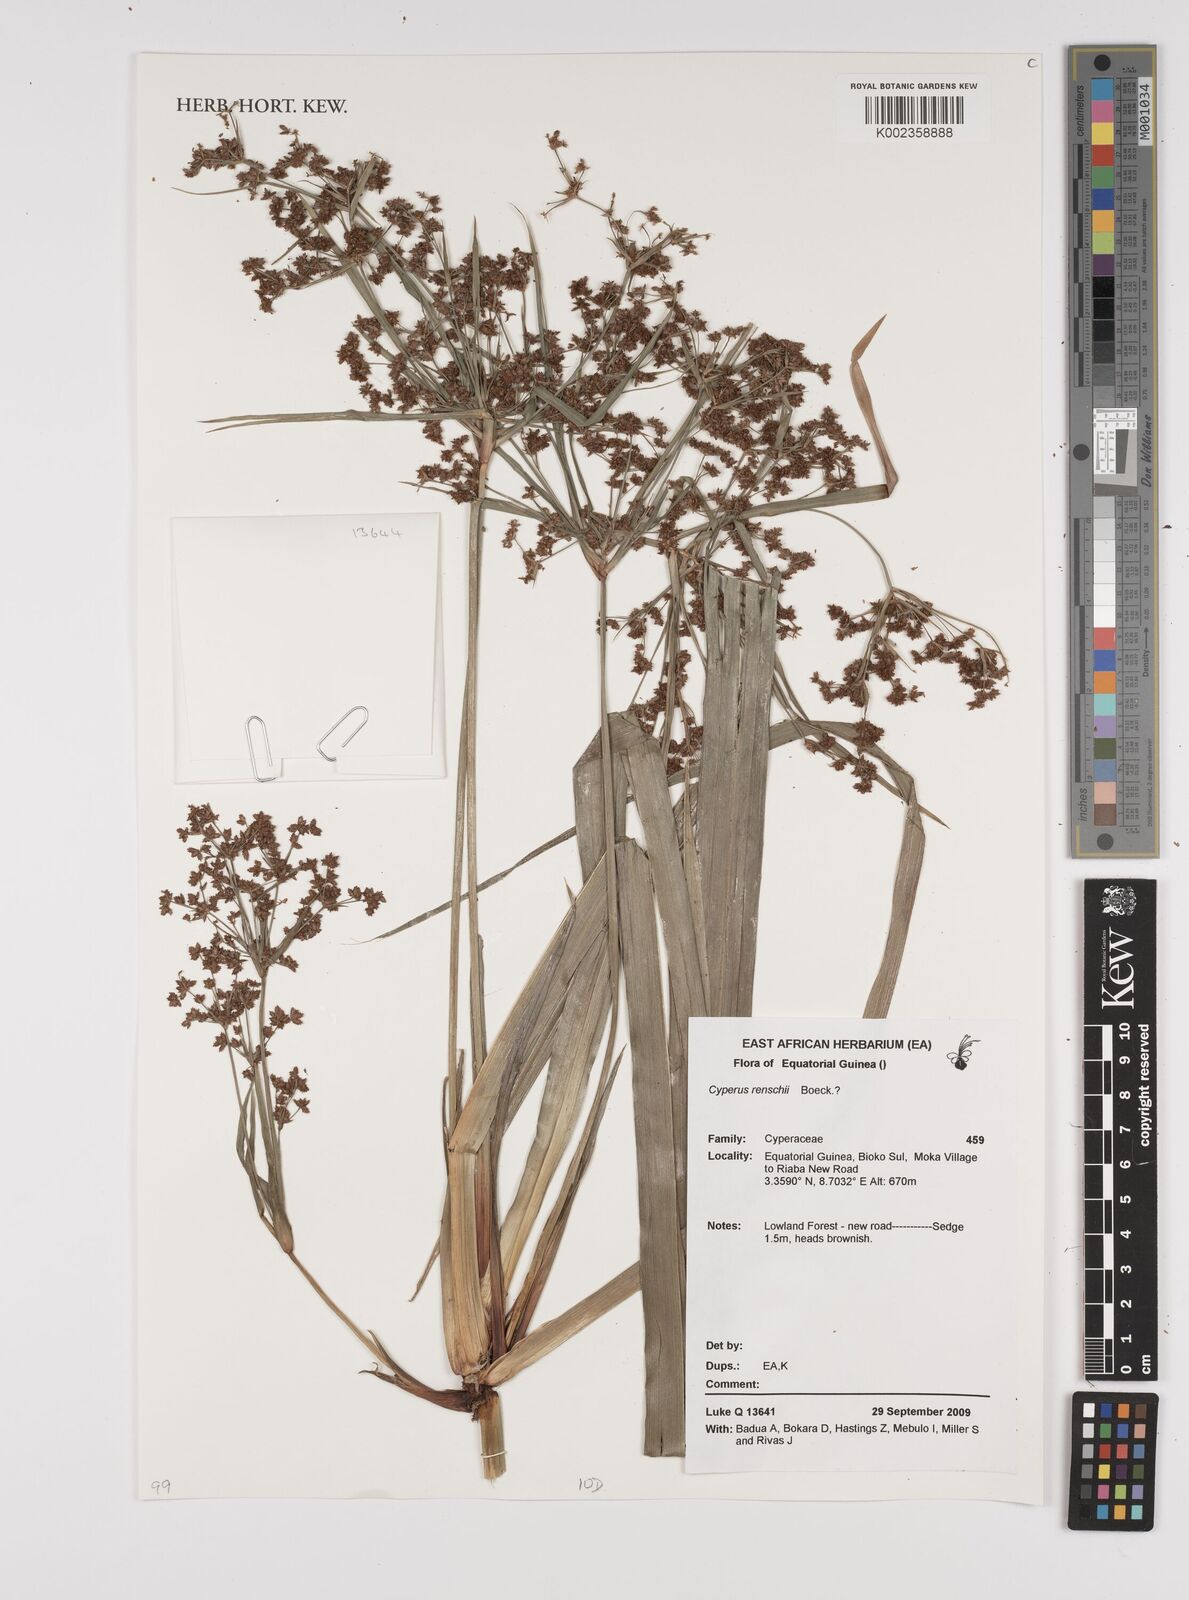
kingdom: Plantae
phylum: Tracheophyta
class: Liliopsida
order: Poales
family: Cyperaceae
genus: Cyperus
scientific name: Cyperus renschii
